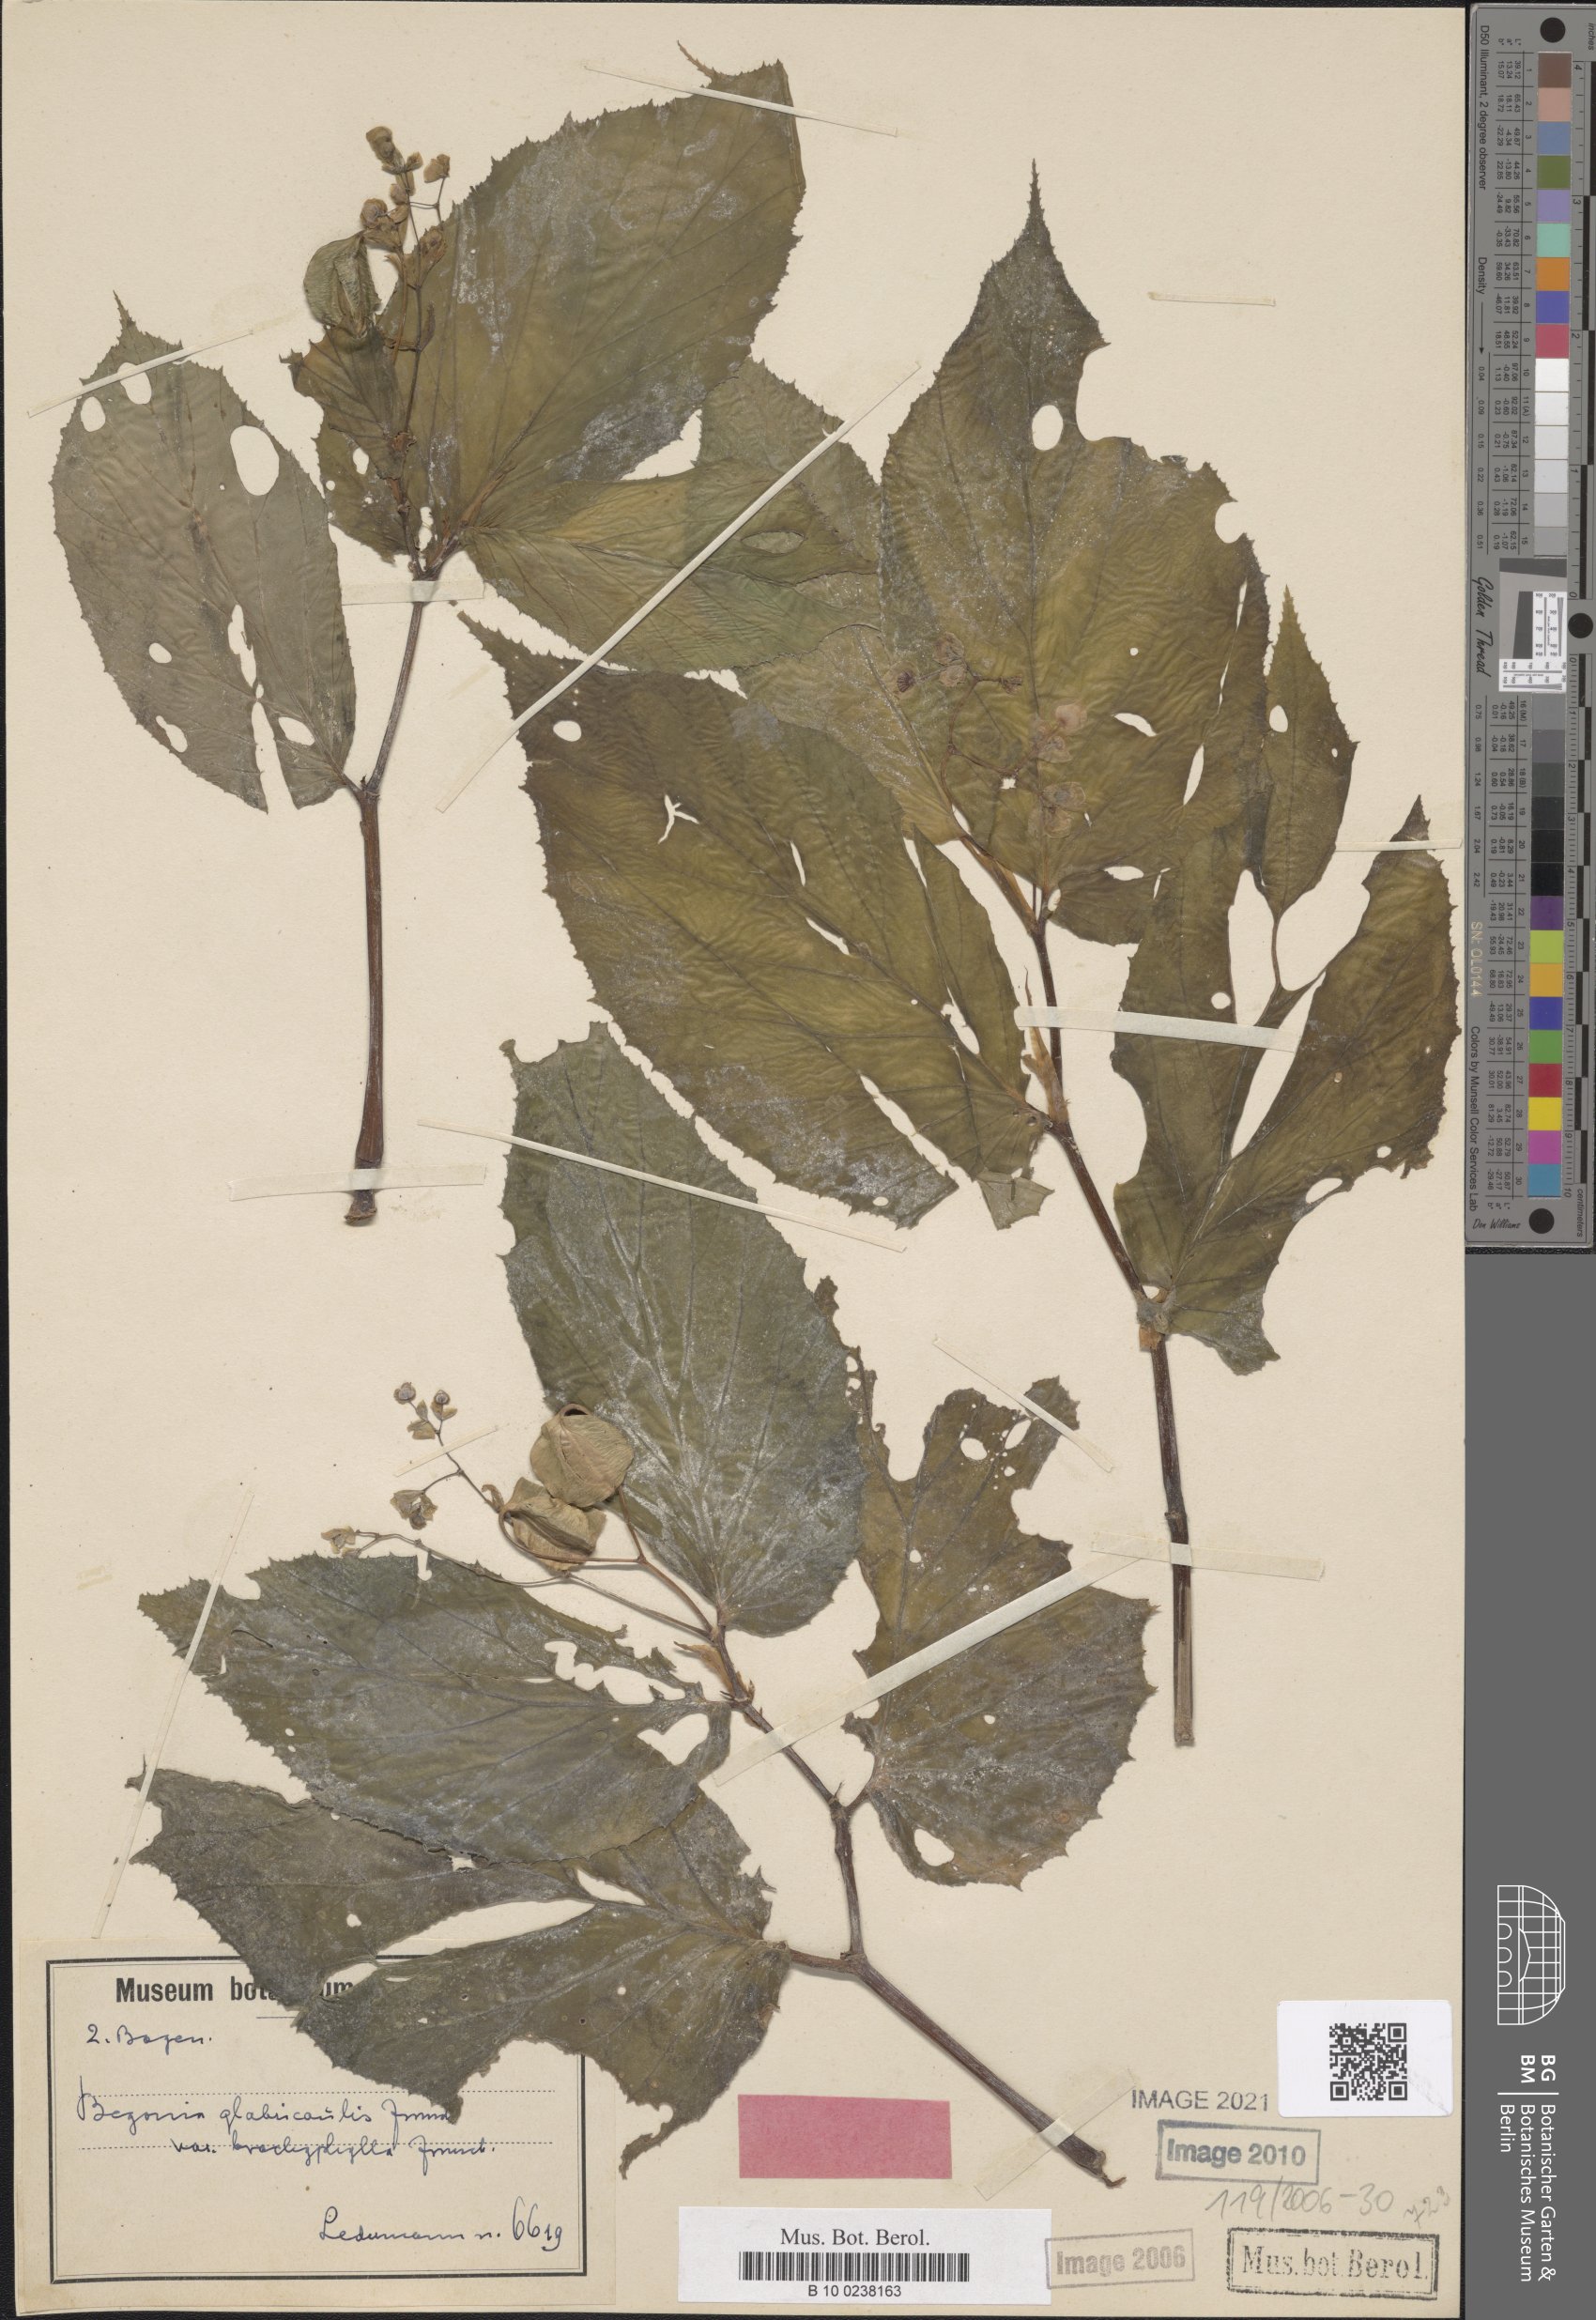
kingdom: Plantae
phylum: Tracheophyta
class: Magnoliopsida
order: Cucurbitales
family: Begoniaceae
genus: Begonia
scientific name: Begonia glabricaulis
